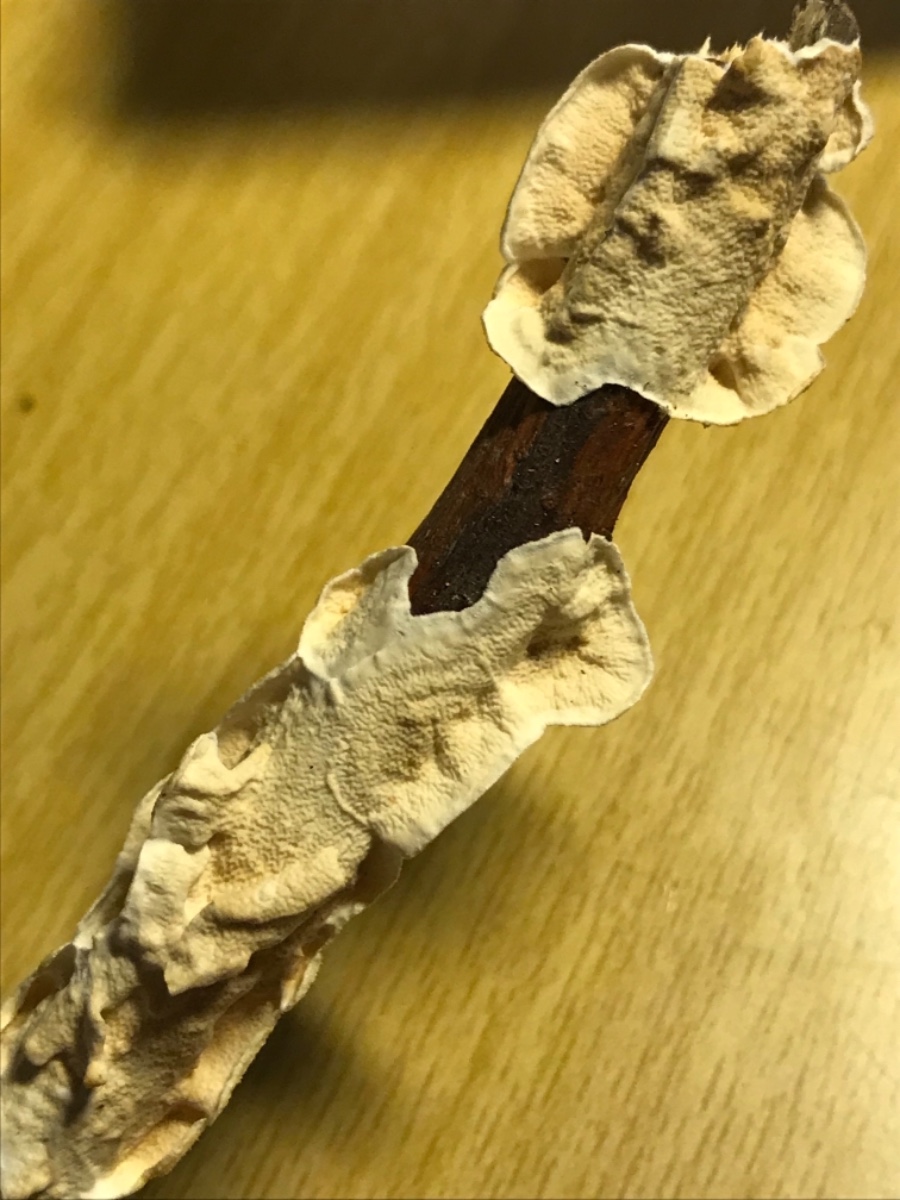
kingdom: Fungi
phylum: Basidiomycota
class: Agaricomycetes
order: Polyporales
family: Irpicaceae
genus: Byssomerulius
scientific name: Byssomerulius corium
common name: læder-åresvamp
